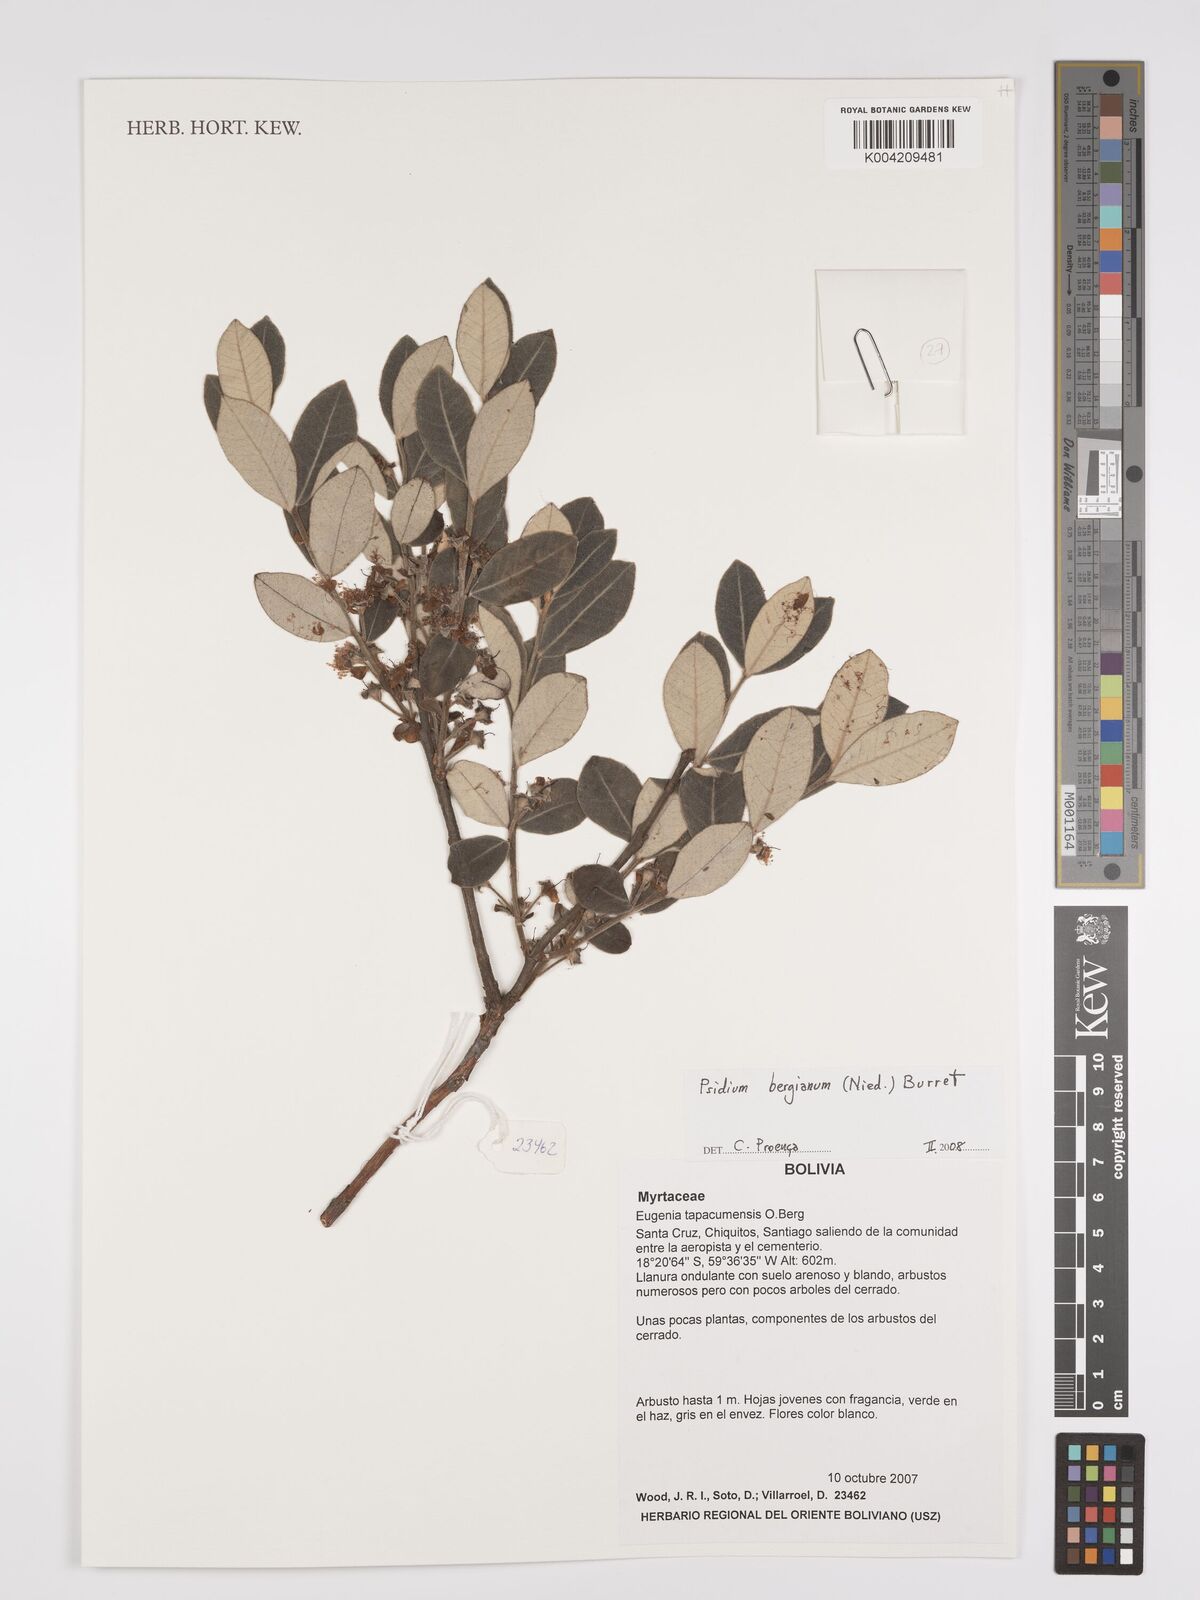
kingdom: Plantae
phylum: Tracheophyta
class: Magnoliopsida
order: Myrtales
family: Myrtaceae
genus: Psidium
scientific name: Psidium bergianum
